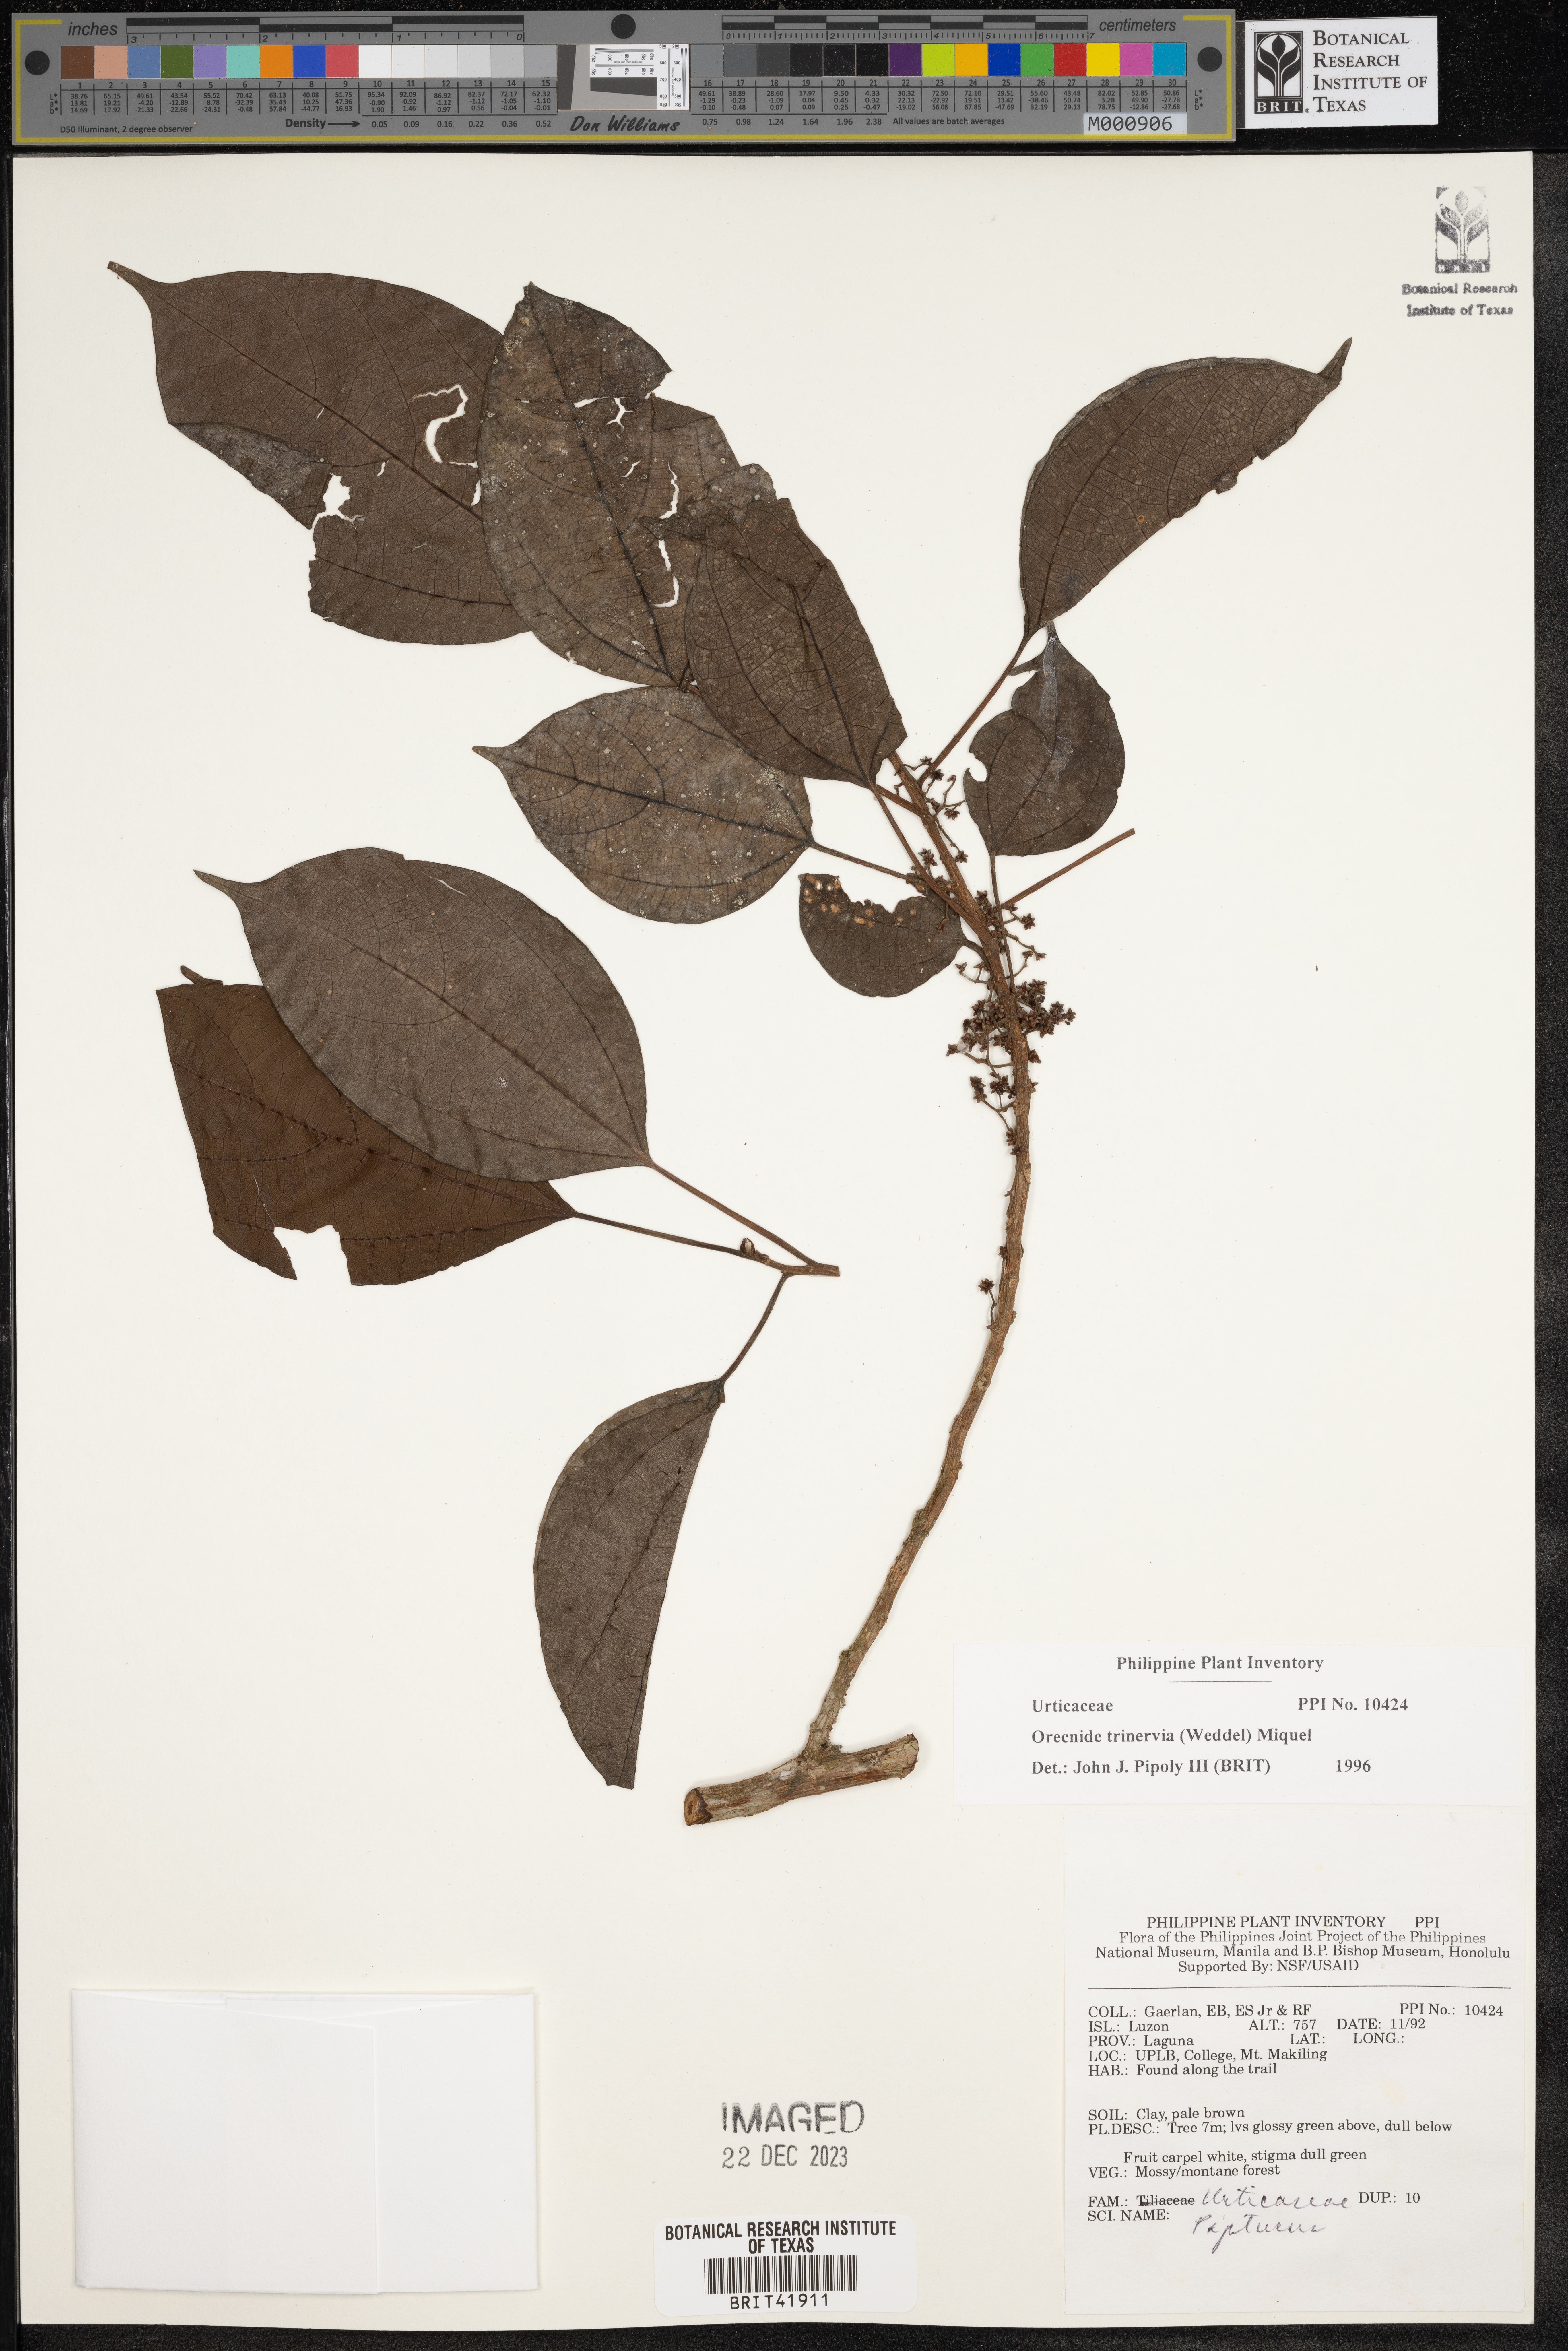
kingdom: Plantae
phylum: Tracheophyta
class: Magnoliopsida
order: Rosales
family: Urticaceae
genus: Oreocnide
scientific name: Oreocnide trinervis
